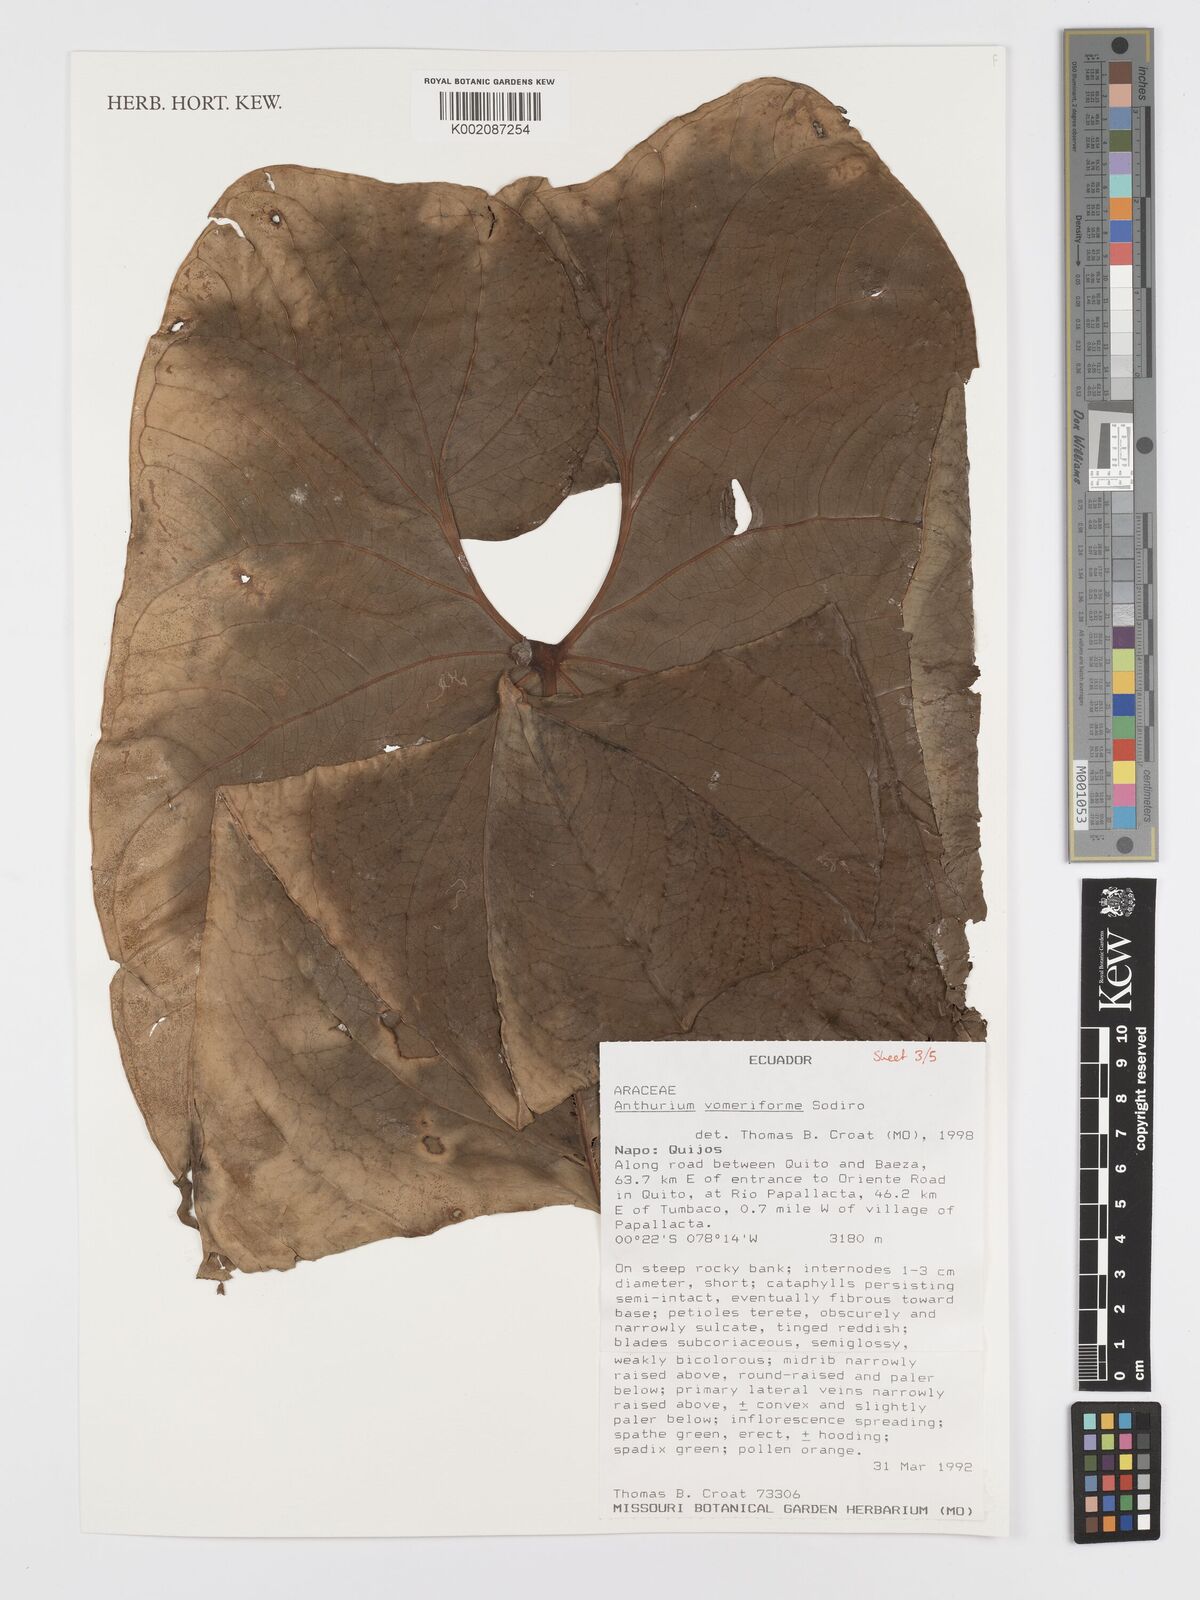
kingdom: Plantae
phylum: Tracheophyta
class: Liliopsida
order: Alismatales
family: Araceae
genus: Anthurium
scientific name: Anthurium vomeriforme
